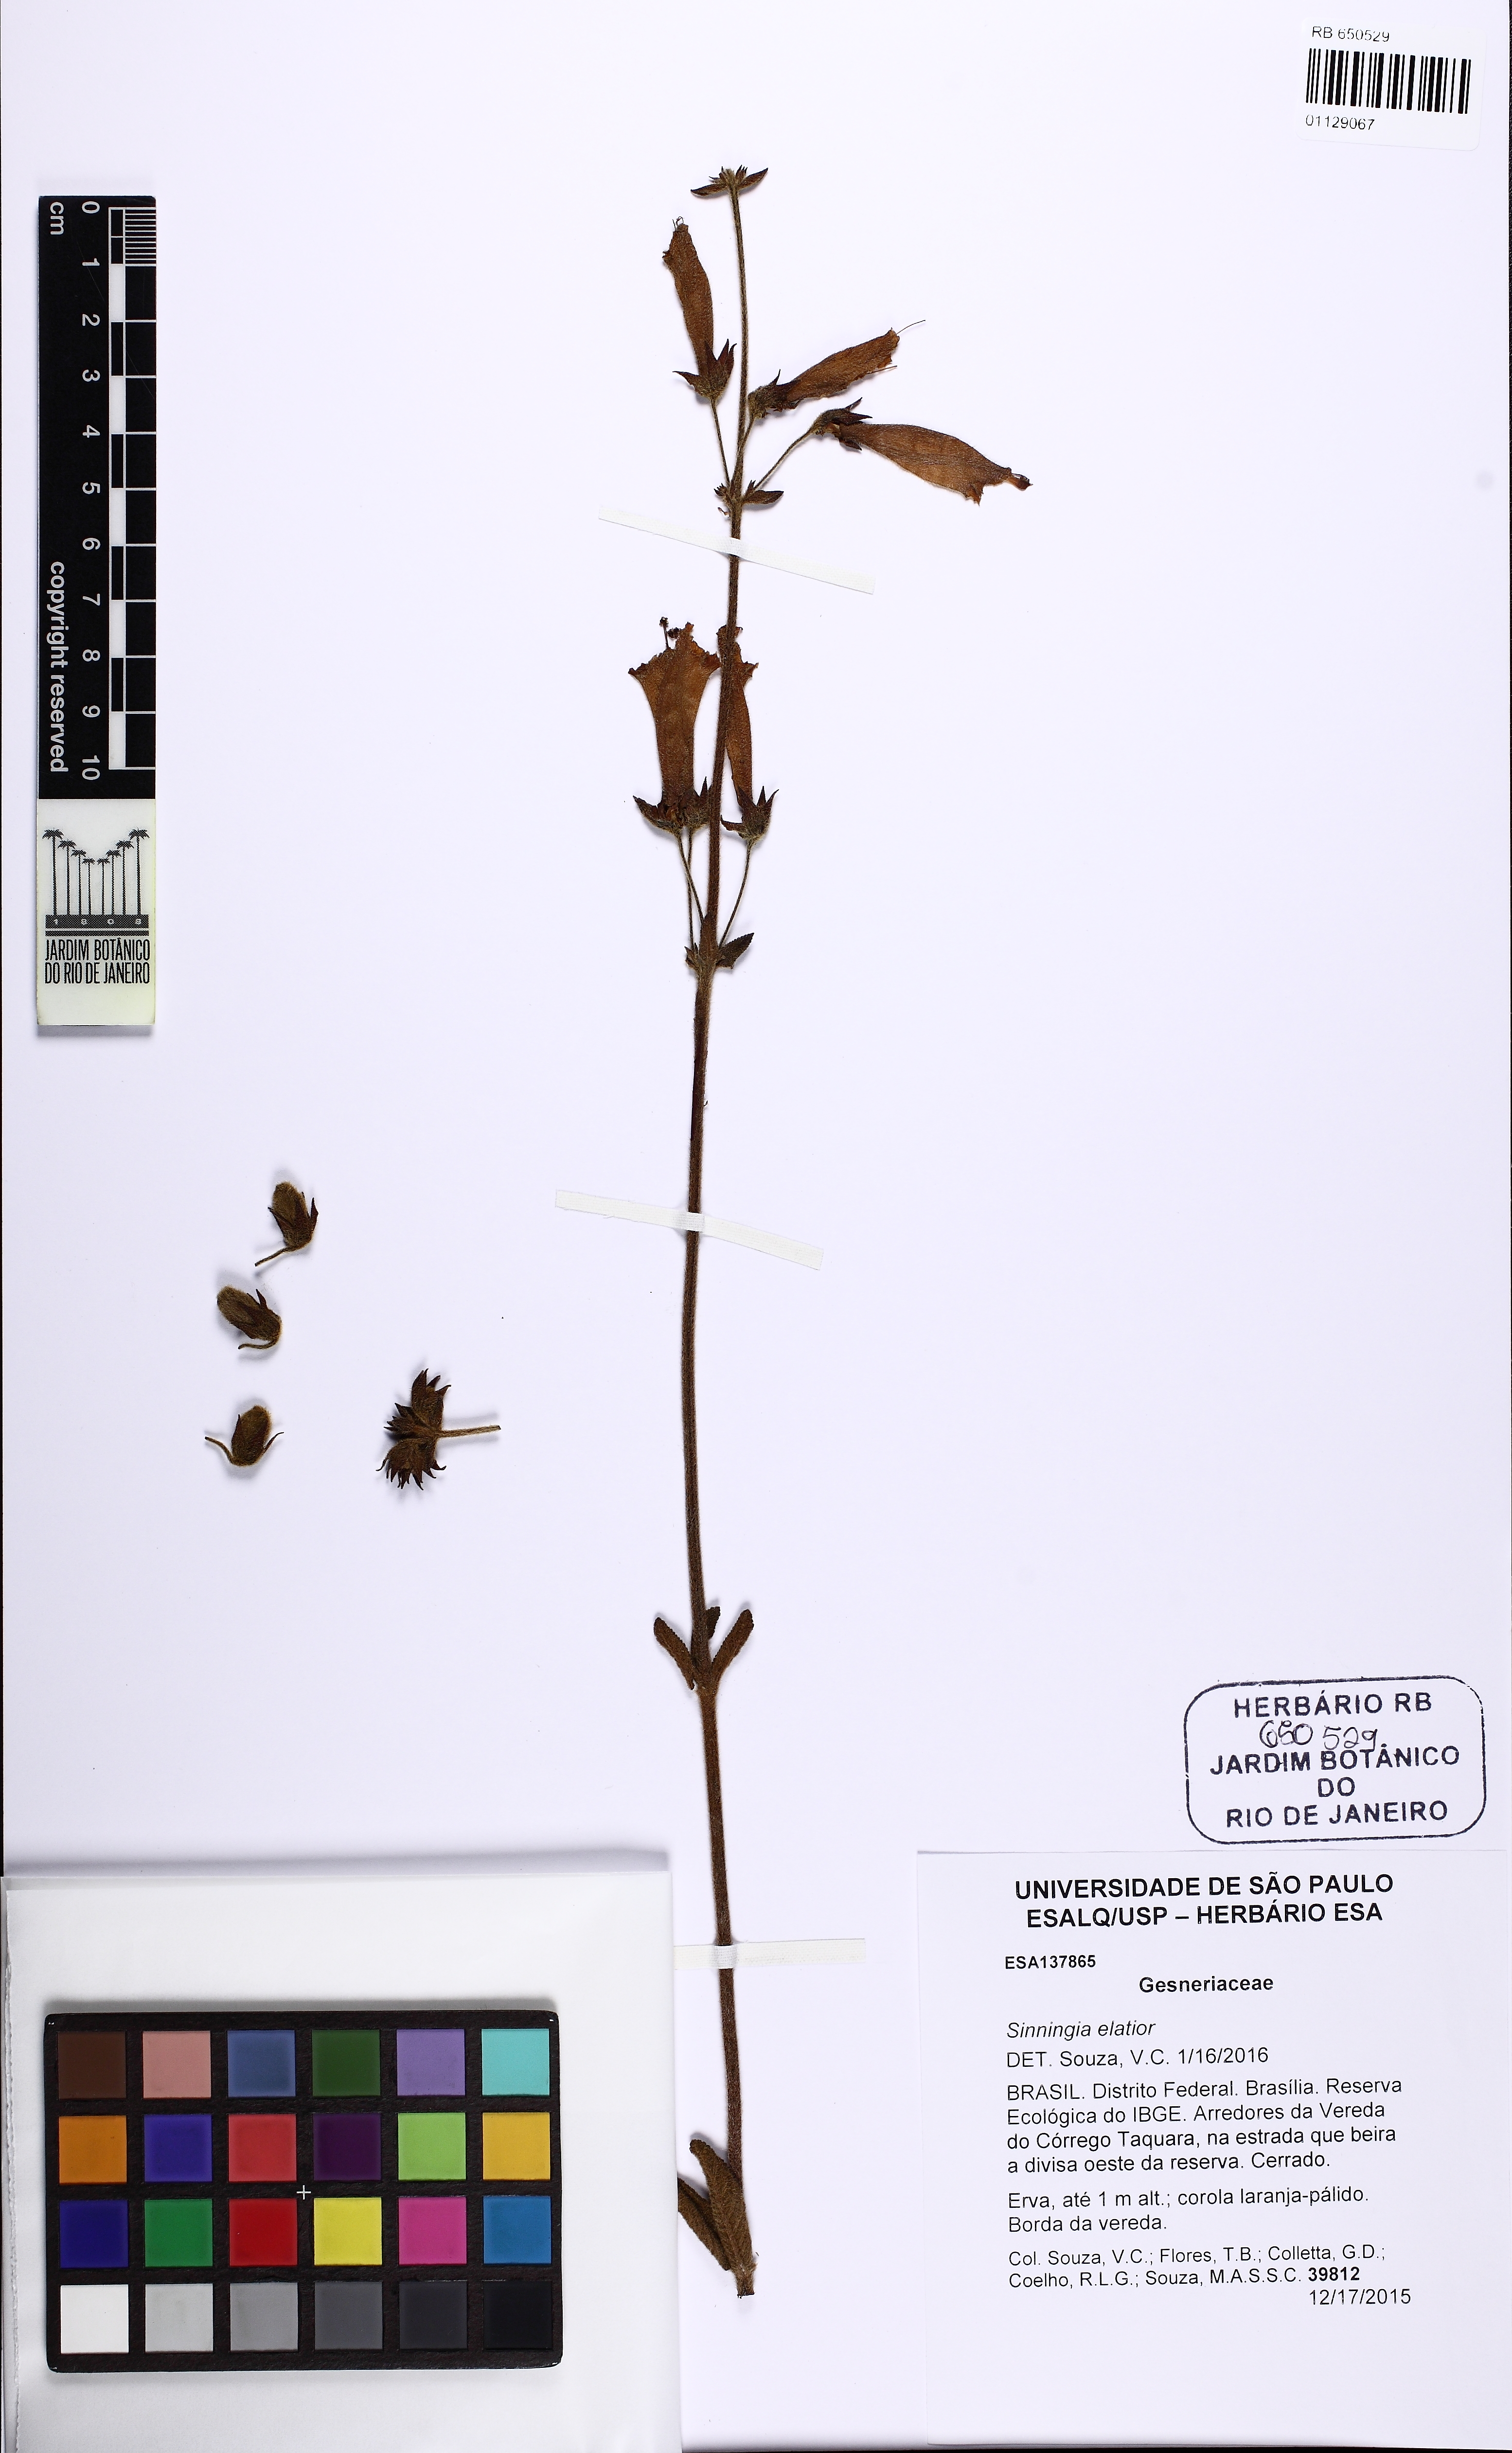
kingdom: Plantae
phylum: Tracheophyta
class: Magnoliopsida
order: Lamiales
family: Gesneriaceae
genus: Sinningia
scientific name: Sinningia elatior
